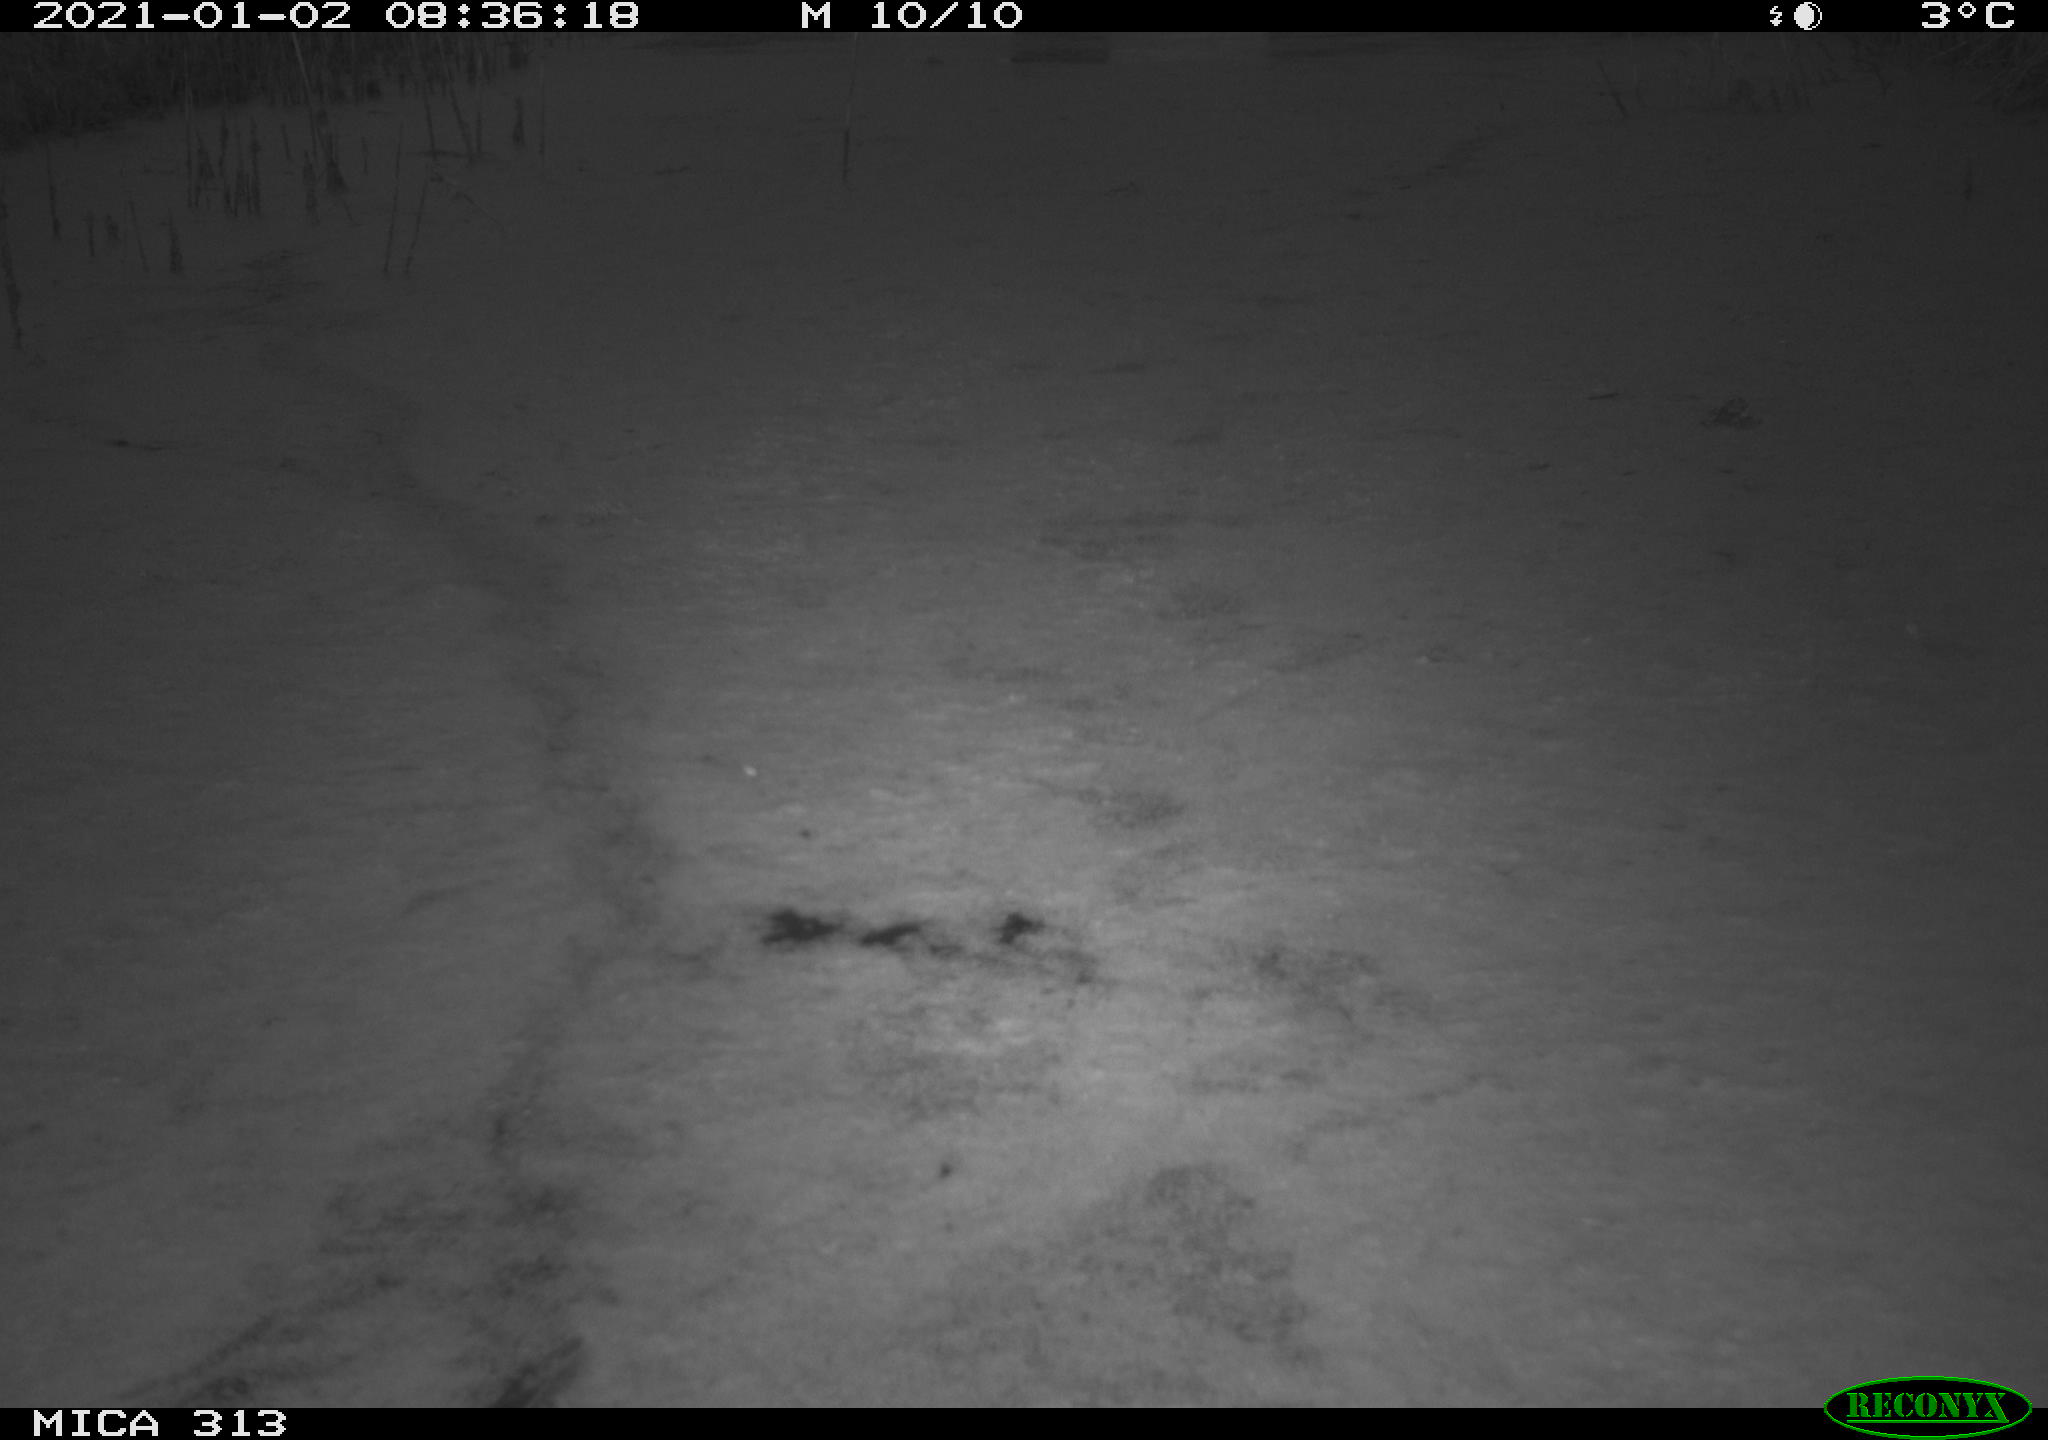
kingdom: Animalia
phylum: Chordata
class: Aves
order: Gruiformes
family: Rallidae
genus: Gallinula
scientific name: Gallinula chloropus
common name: Common moorhen
